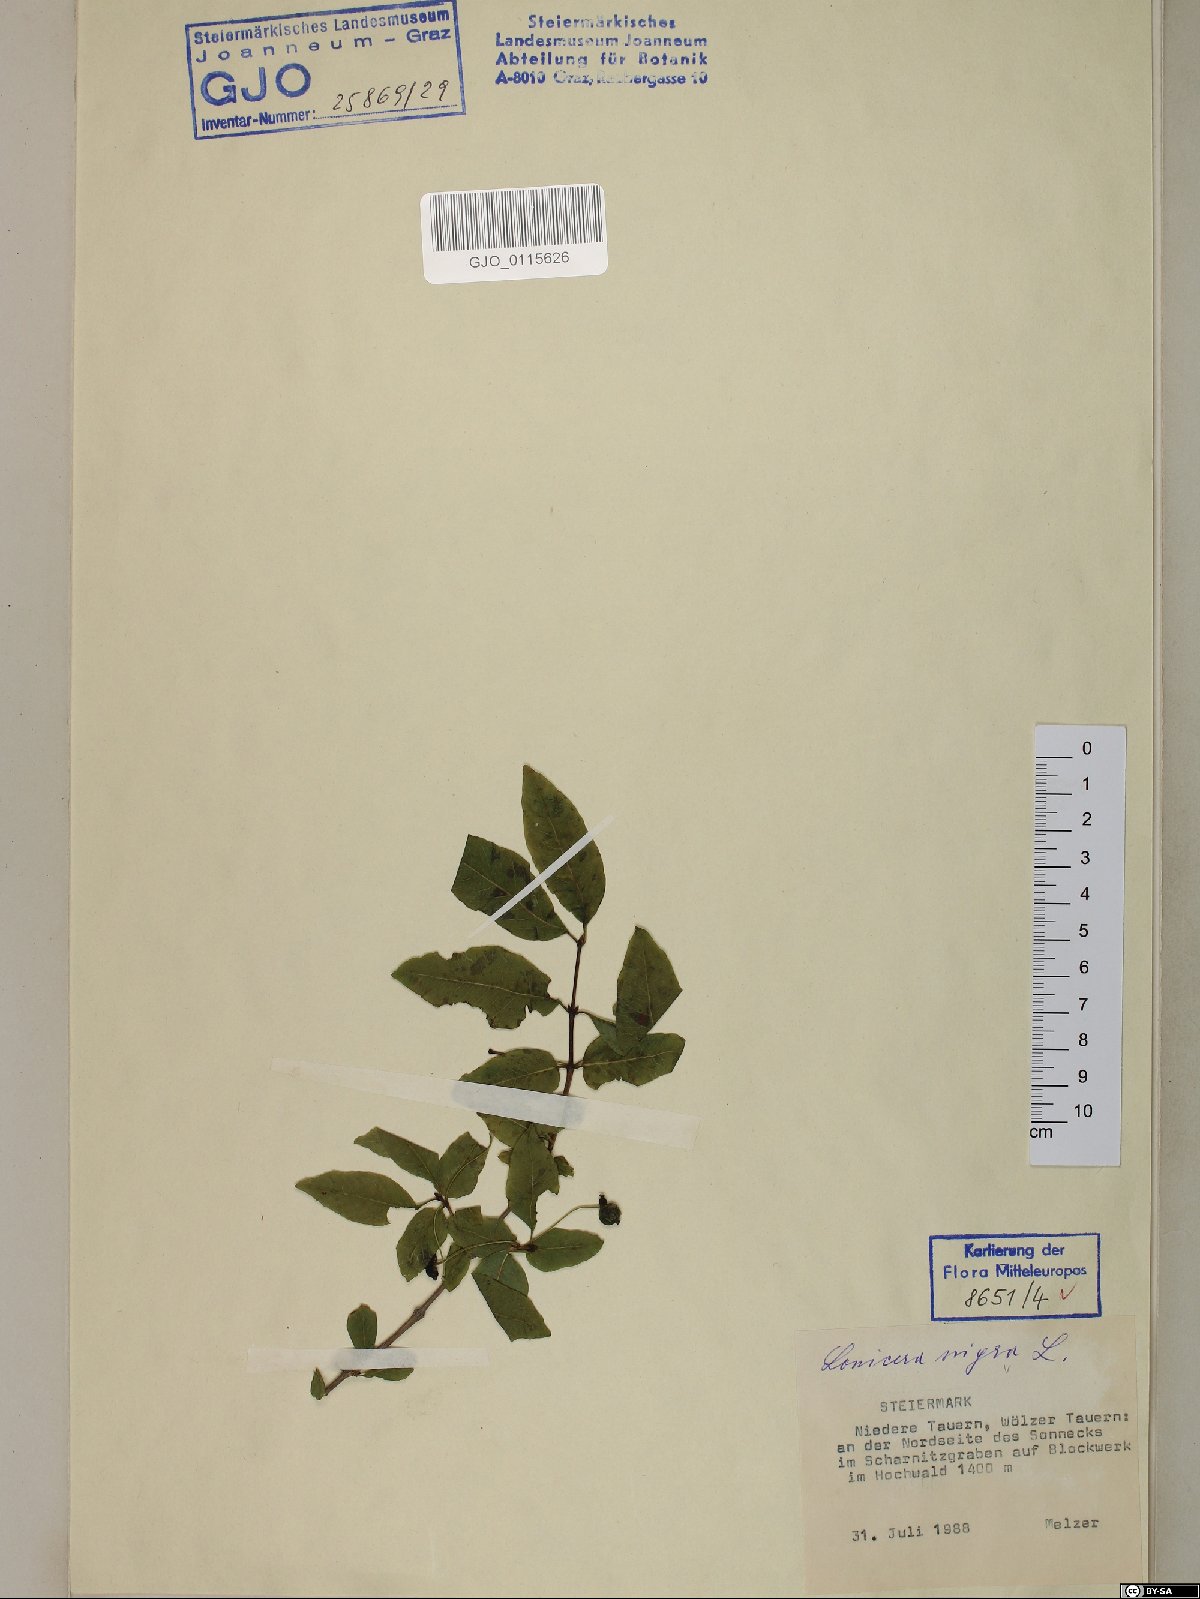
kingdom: Plantae
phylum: Tracheophyta
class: Magnoliopsida
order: Dipsacales
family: Caprifoliaceae
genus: Lonicera
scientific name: Lonicera nigra
